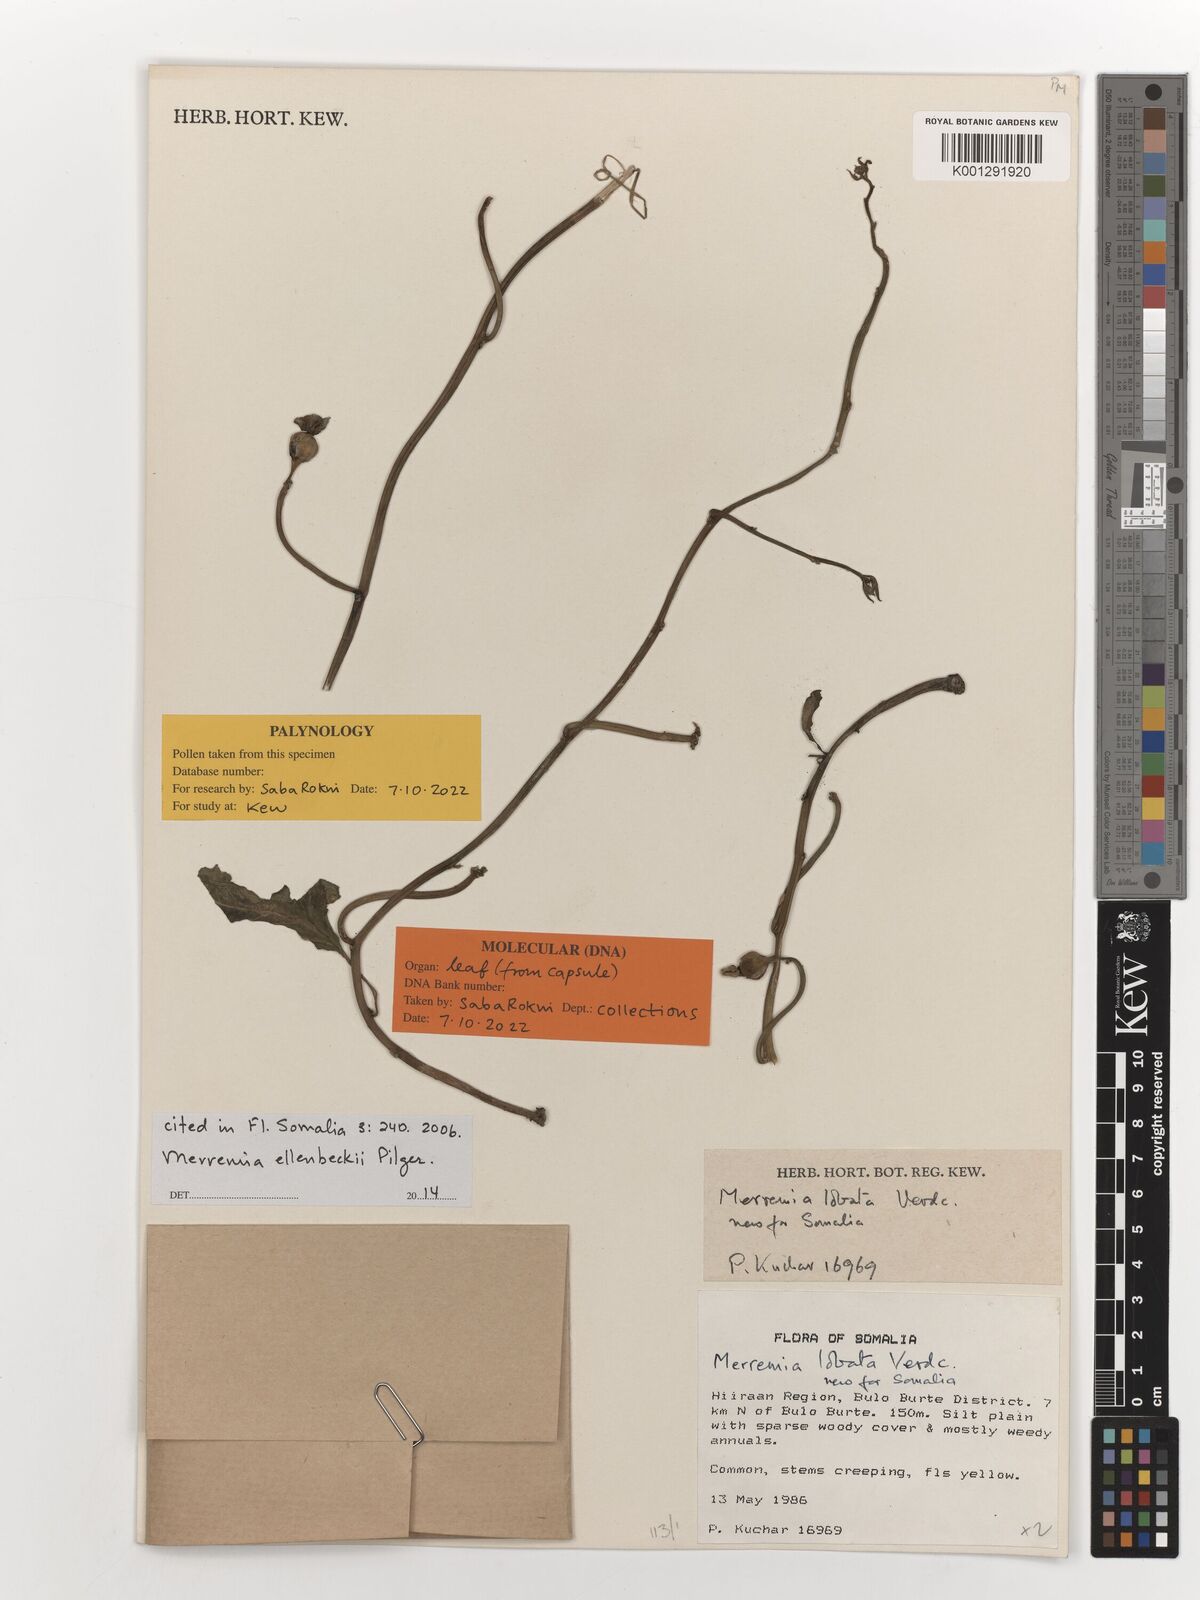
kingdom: Plantae
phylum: Tracheophyta
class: Magnoliopsida
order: Solanales
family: Convolvulaceae
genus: Merremia
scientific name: Merremia ellenbeckii
